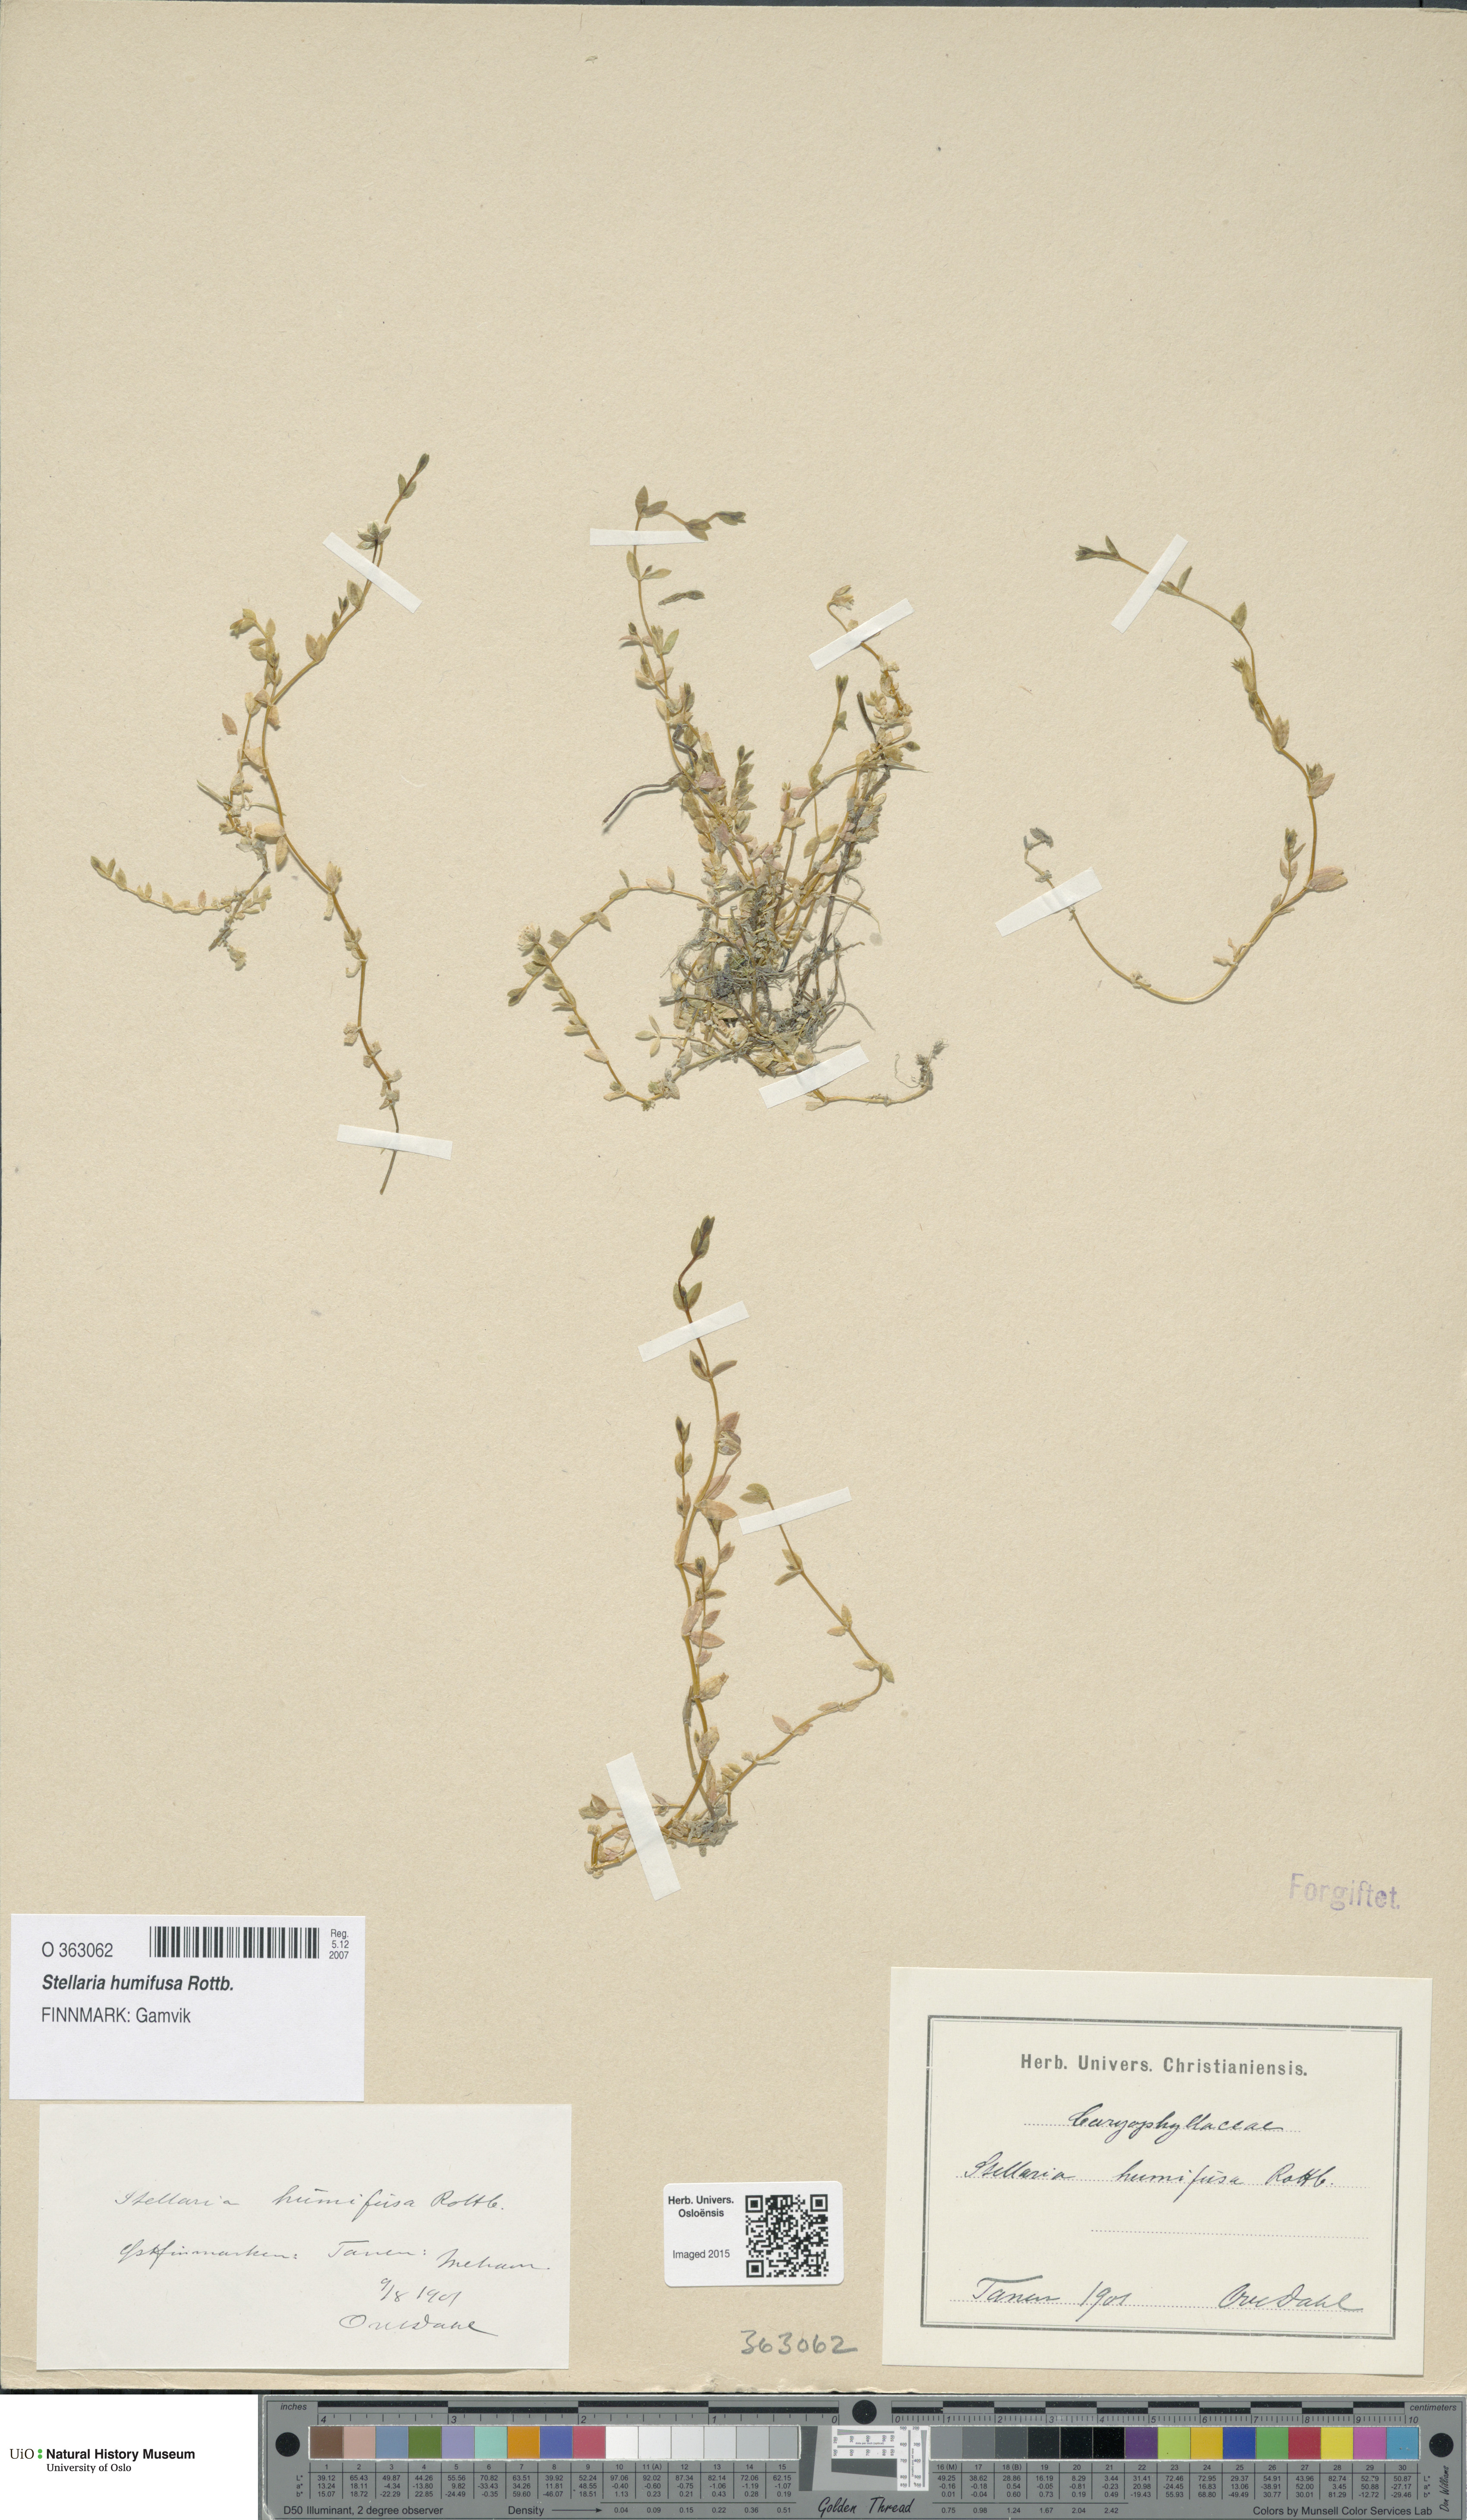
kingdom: Plantae
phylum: Tracheophyta
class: Magnoliopsida
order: Caryophyllales
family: Caryophyllaceae
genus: Stellaria
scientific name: Stellaria humifusa
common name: Creeping starwort
